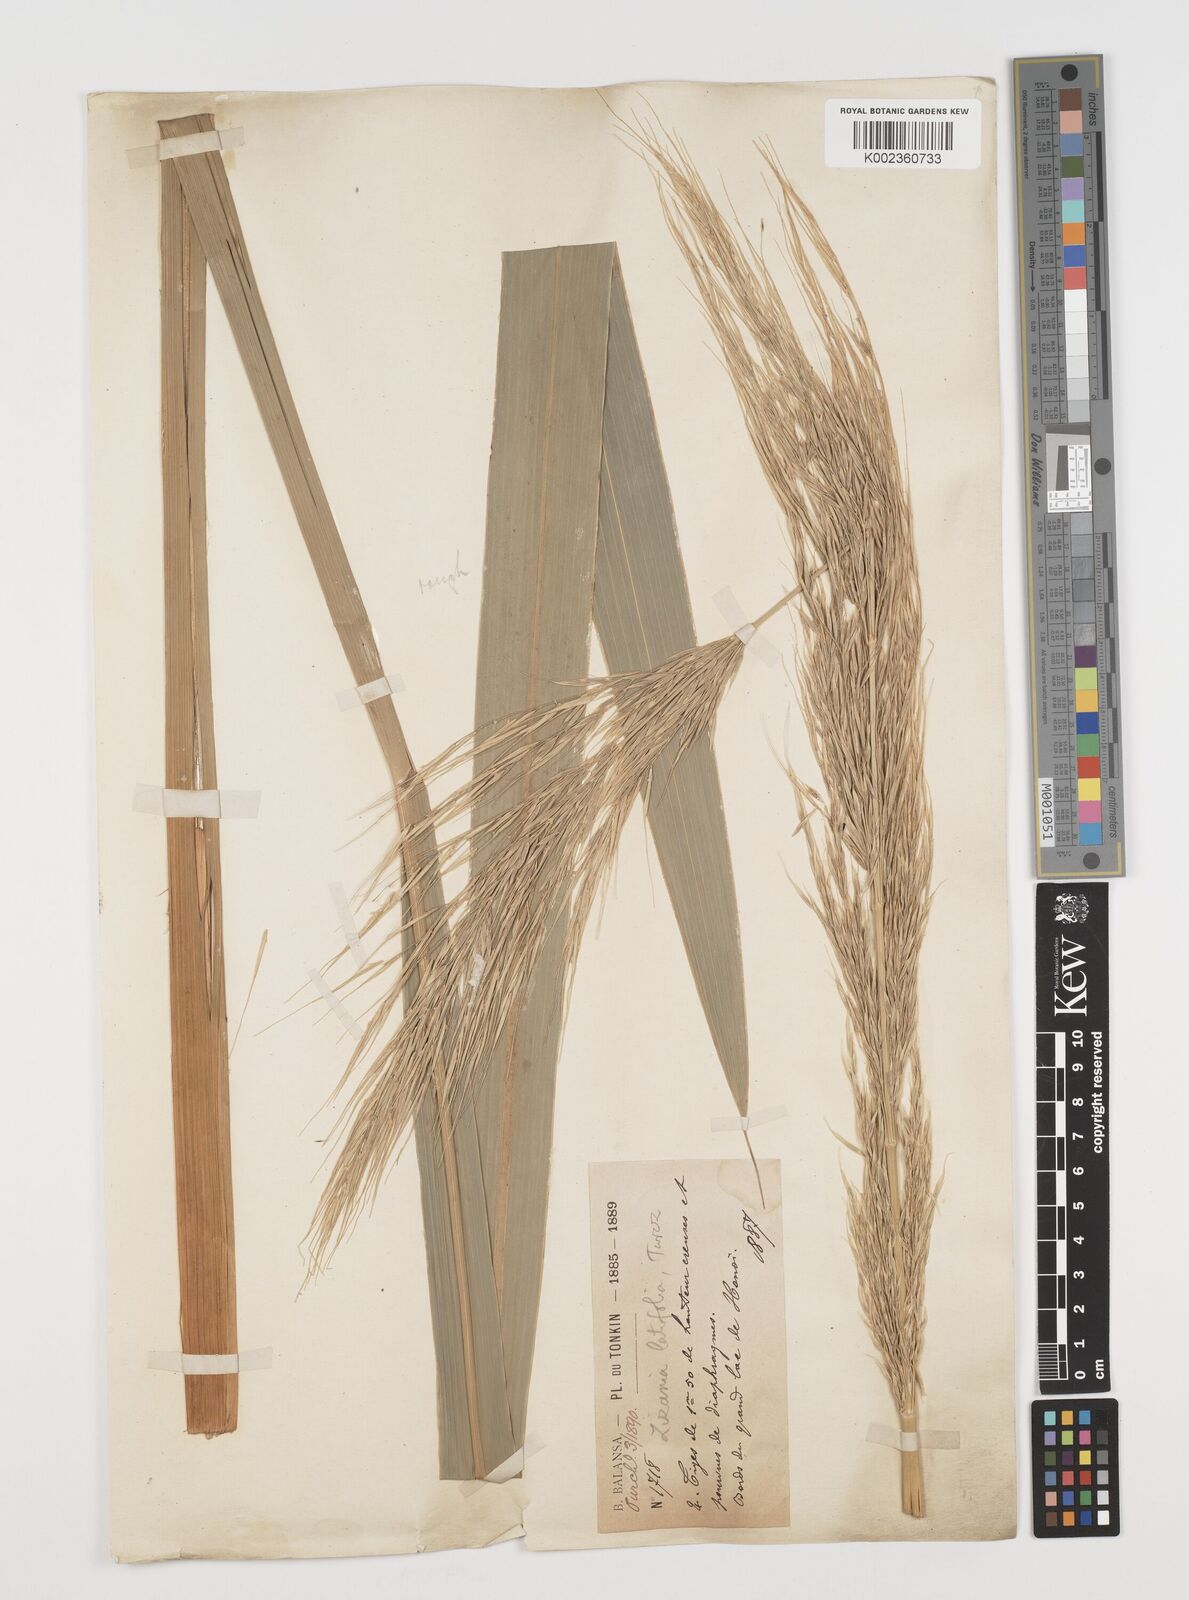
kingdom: Plantae
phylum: Tracheophyta
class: Liliopsida
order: Poales
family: Poaceae
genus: Zizania
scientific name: Zizania latifolia
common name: Manchurian wildrice
